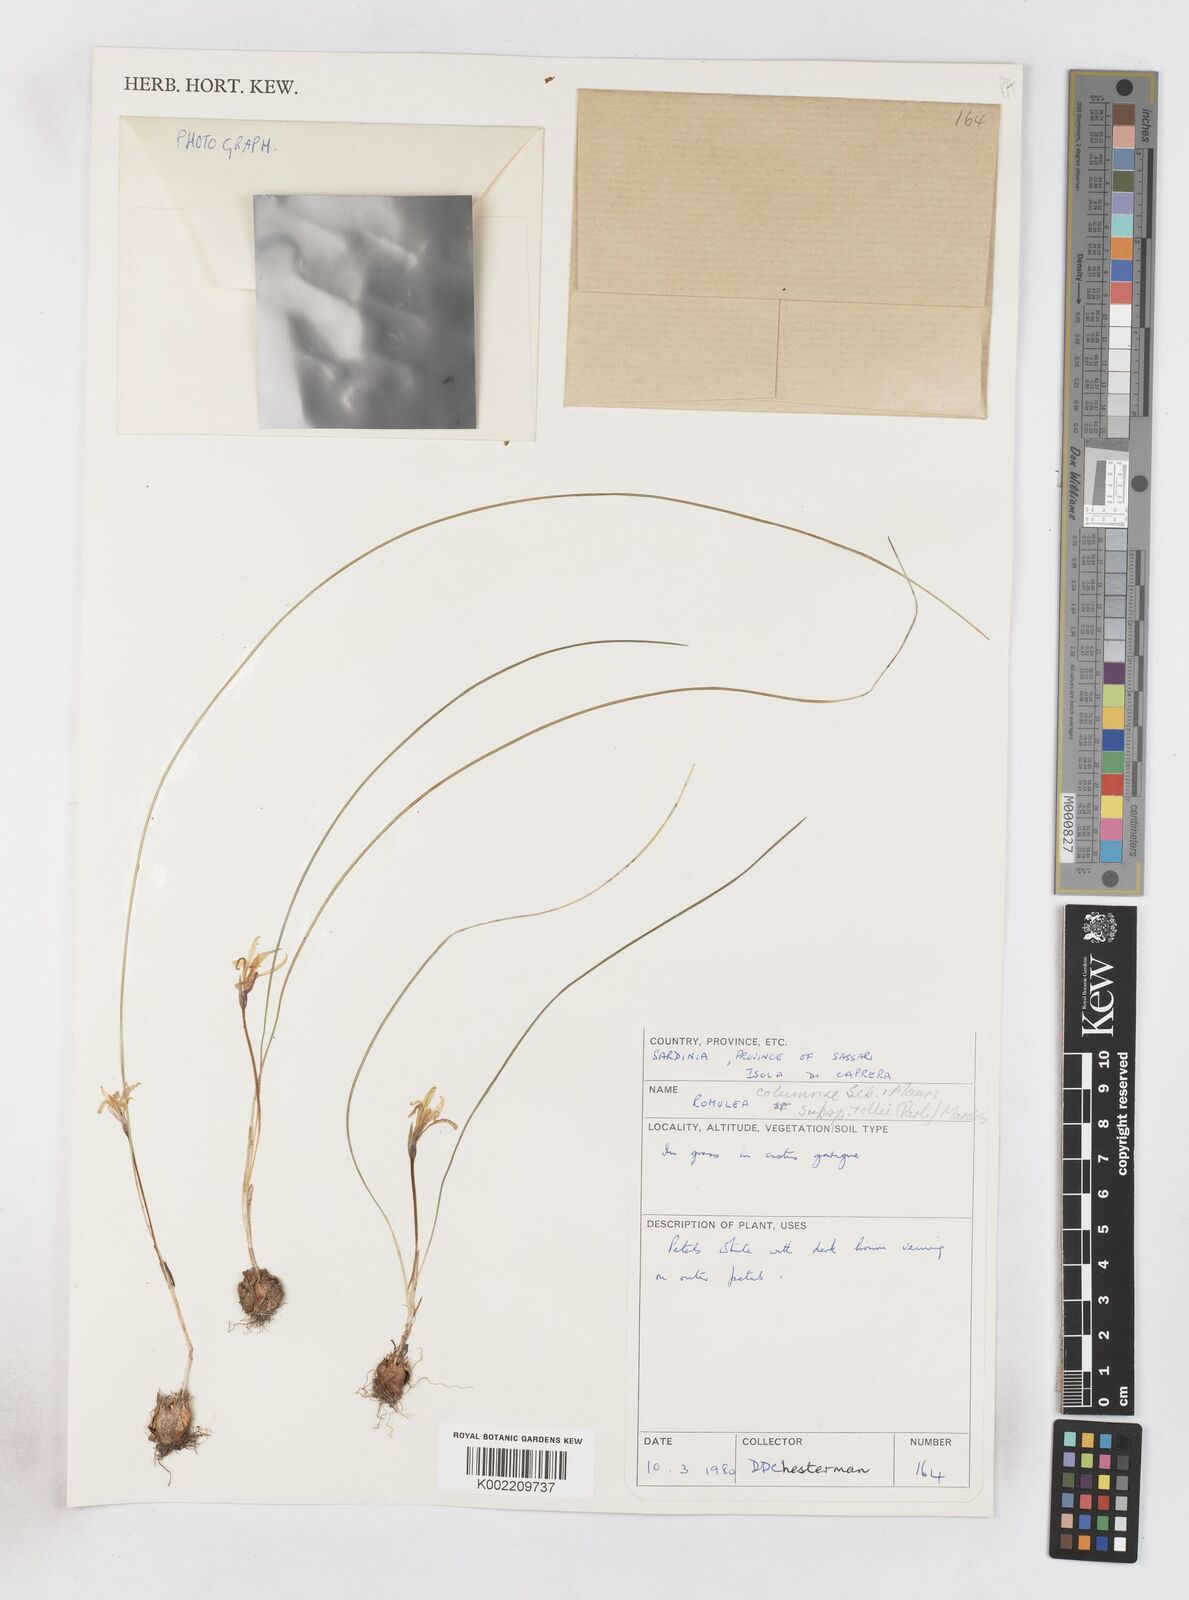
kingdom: Plantae
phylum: Tracheophyta
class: Liliopsida
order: Asparagales
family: Iridaceae
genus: Romulea
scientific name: Romulea columnae
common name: Sand-crocus
